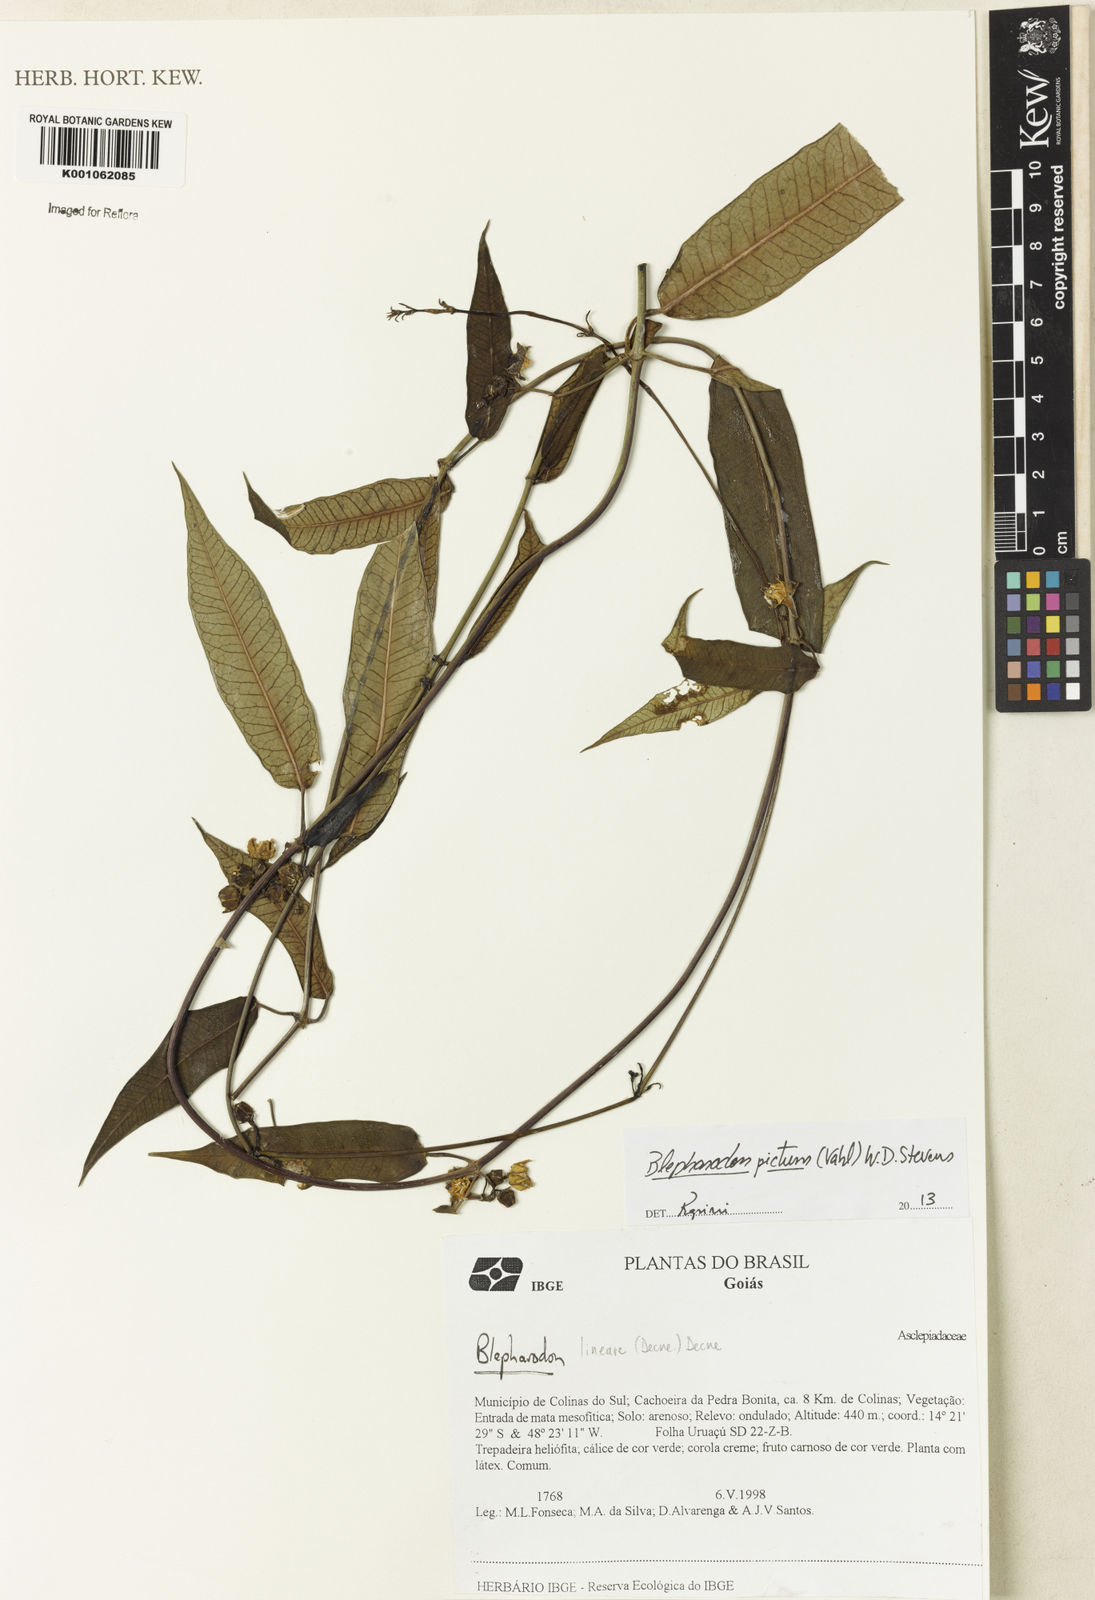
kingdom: Plantae
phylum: Tracheophyta
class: Magnoliopsida
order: Gentianales
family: Apocynaceae
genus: Blepharodon
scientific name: Blepharodon pictum
